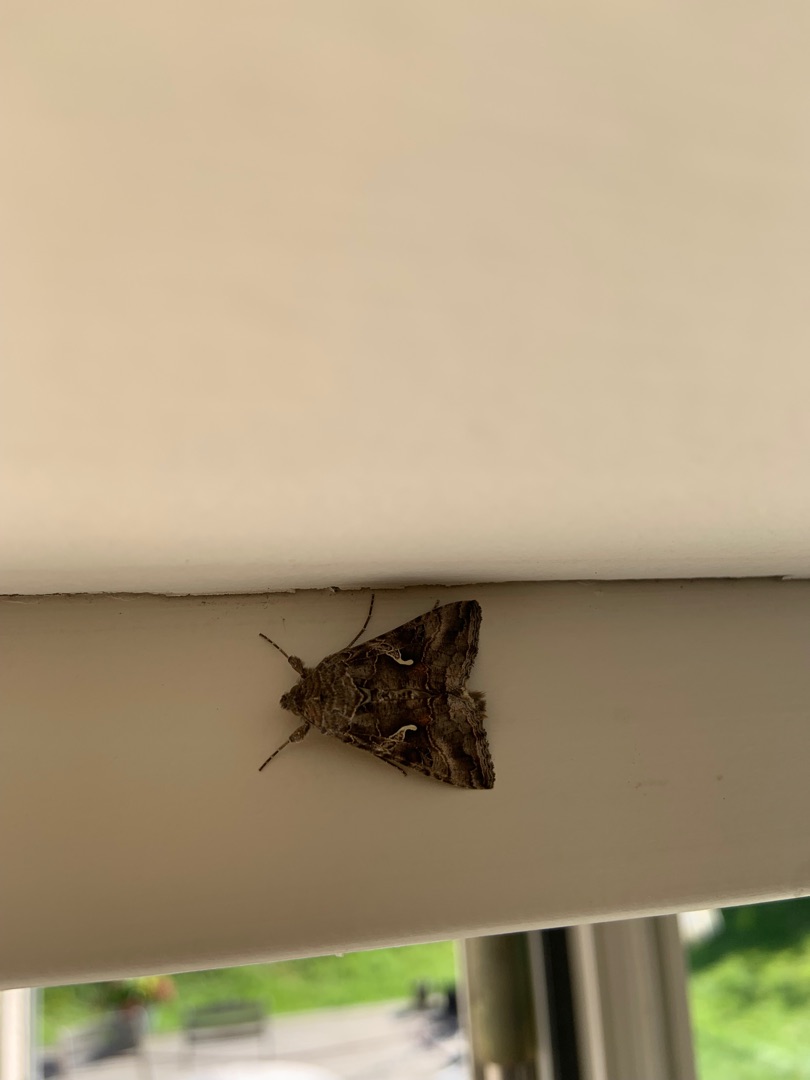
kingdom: Animalia
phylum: Arthropoda
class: Insecta
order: Lepidoptera
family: Noctuidae
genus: Autographa
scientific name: Autographa gamma
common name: Gammaugle
